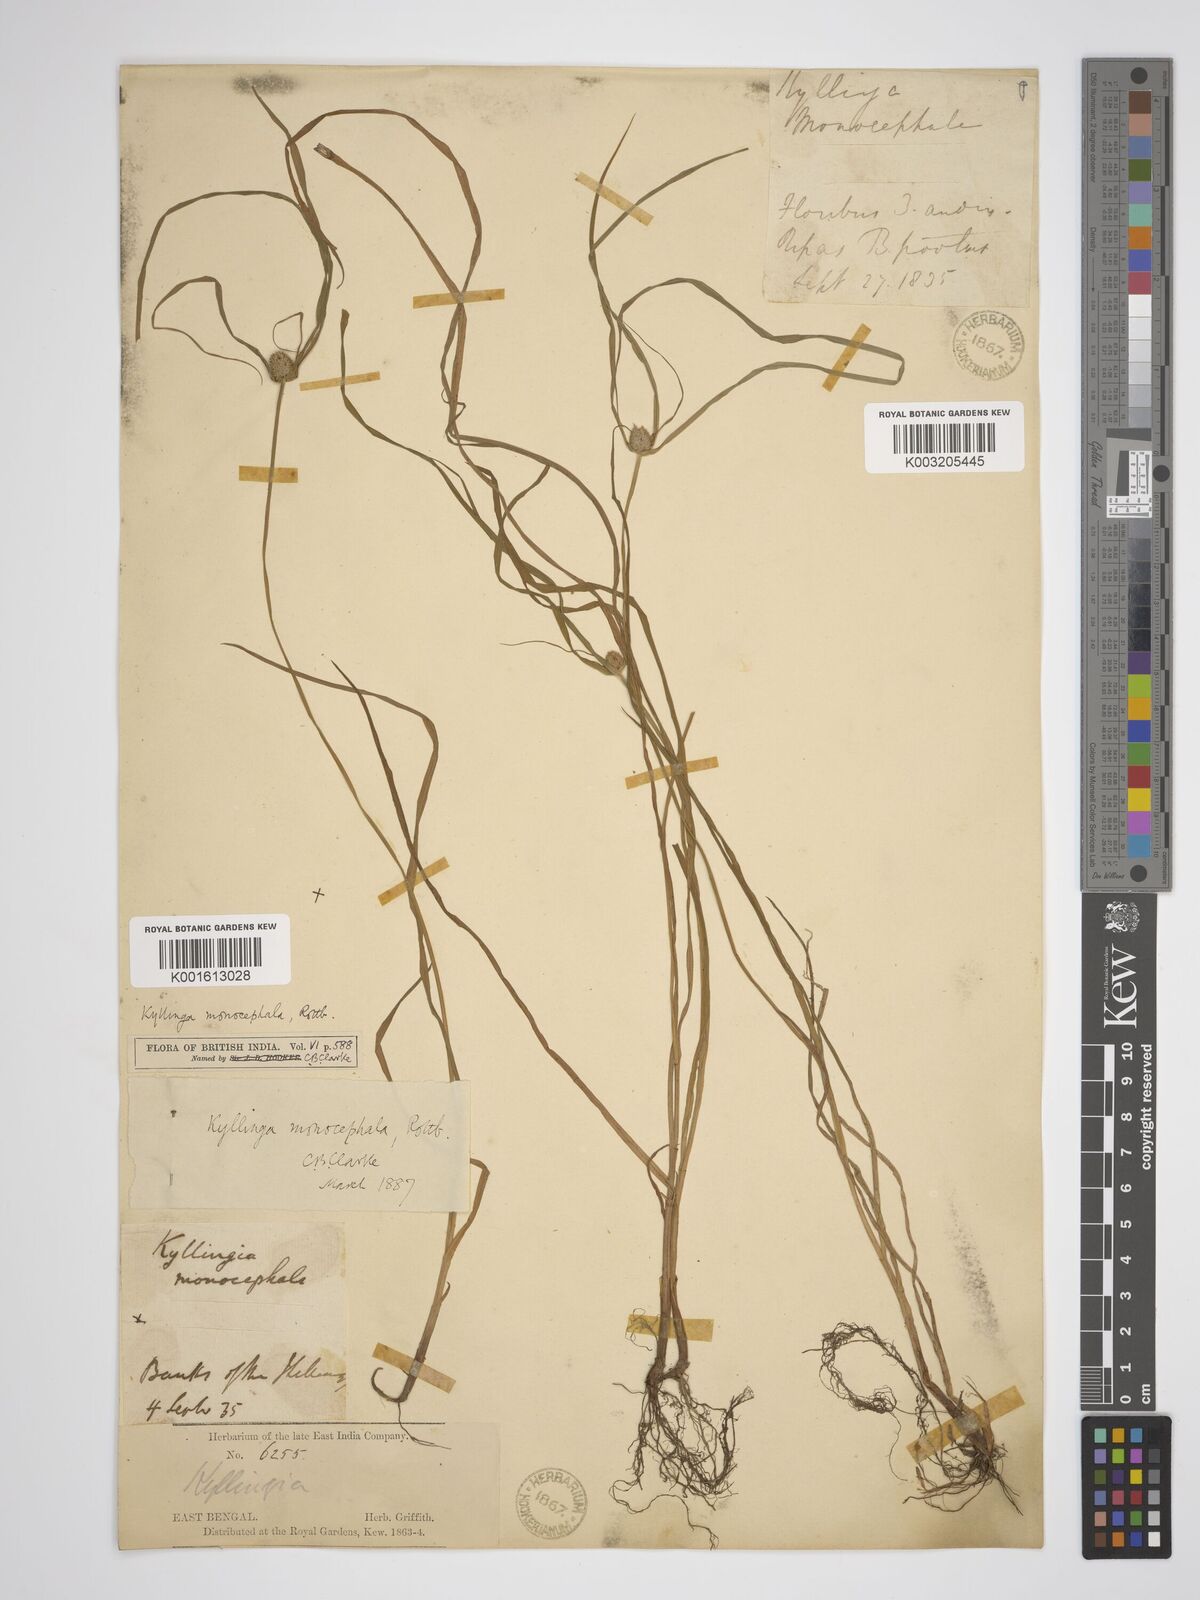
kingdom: Plantae
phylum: Tracheophyta
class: Liliopsida
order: Poales
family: Cyperaceae
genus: Rhynchospora
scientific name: Rhynchospora colorata
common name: Star sedge
